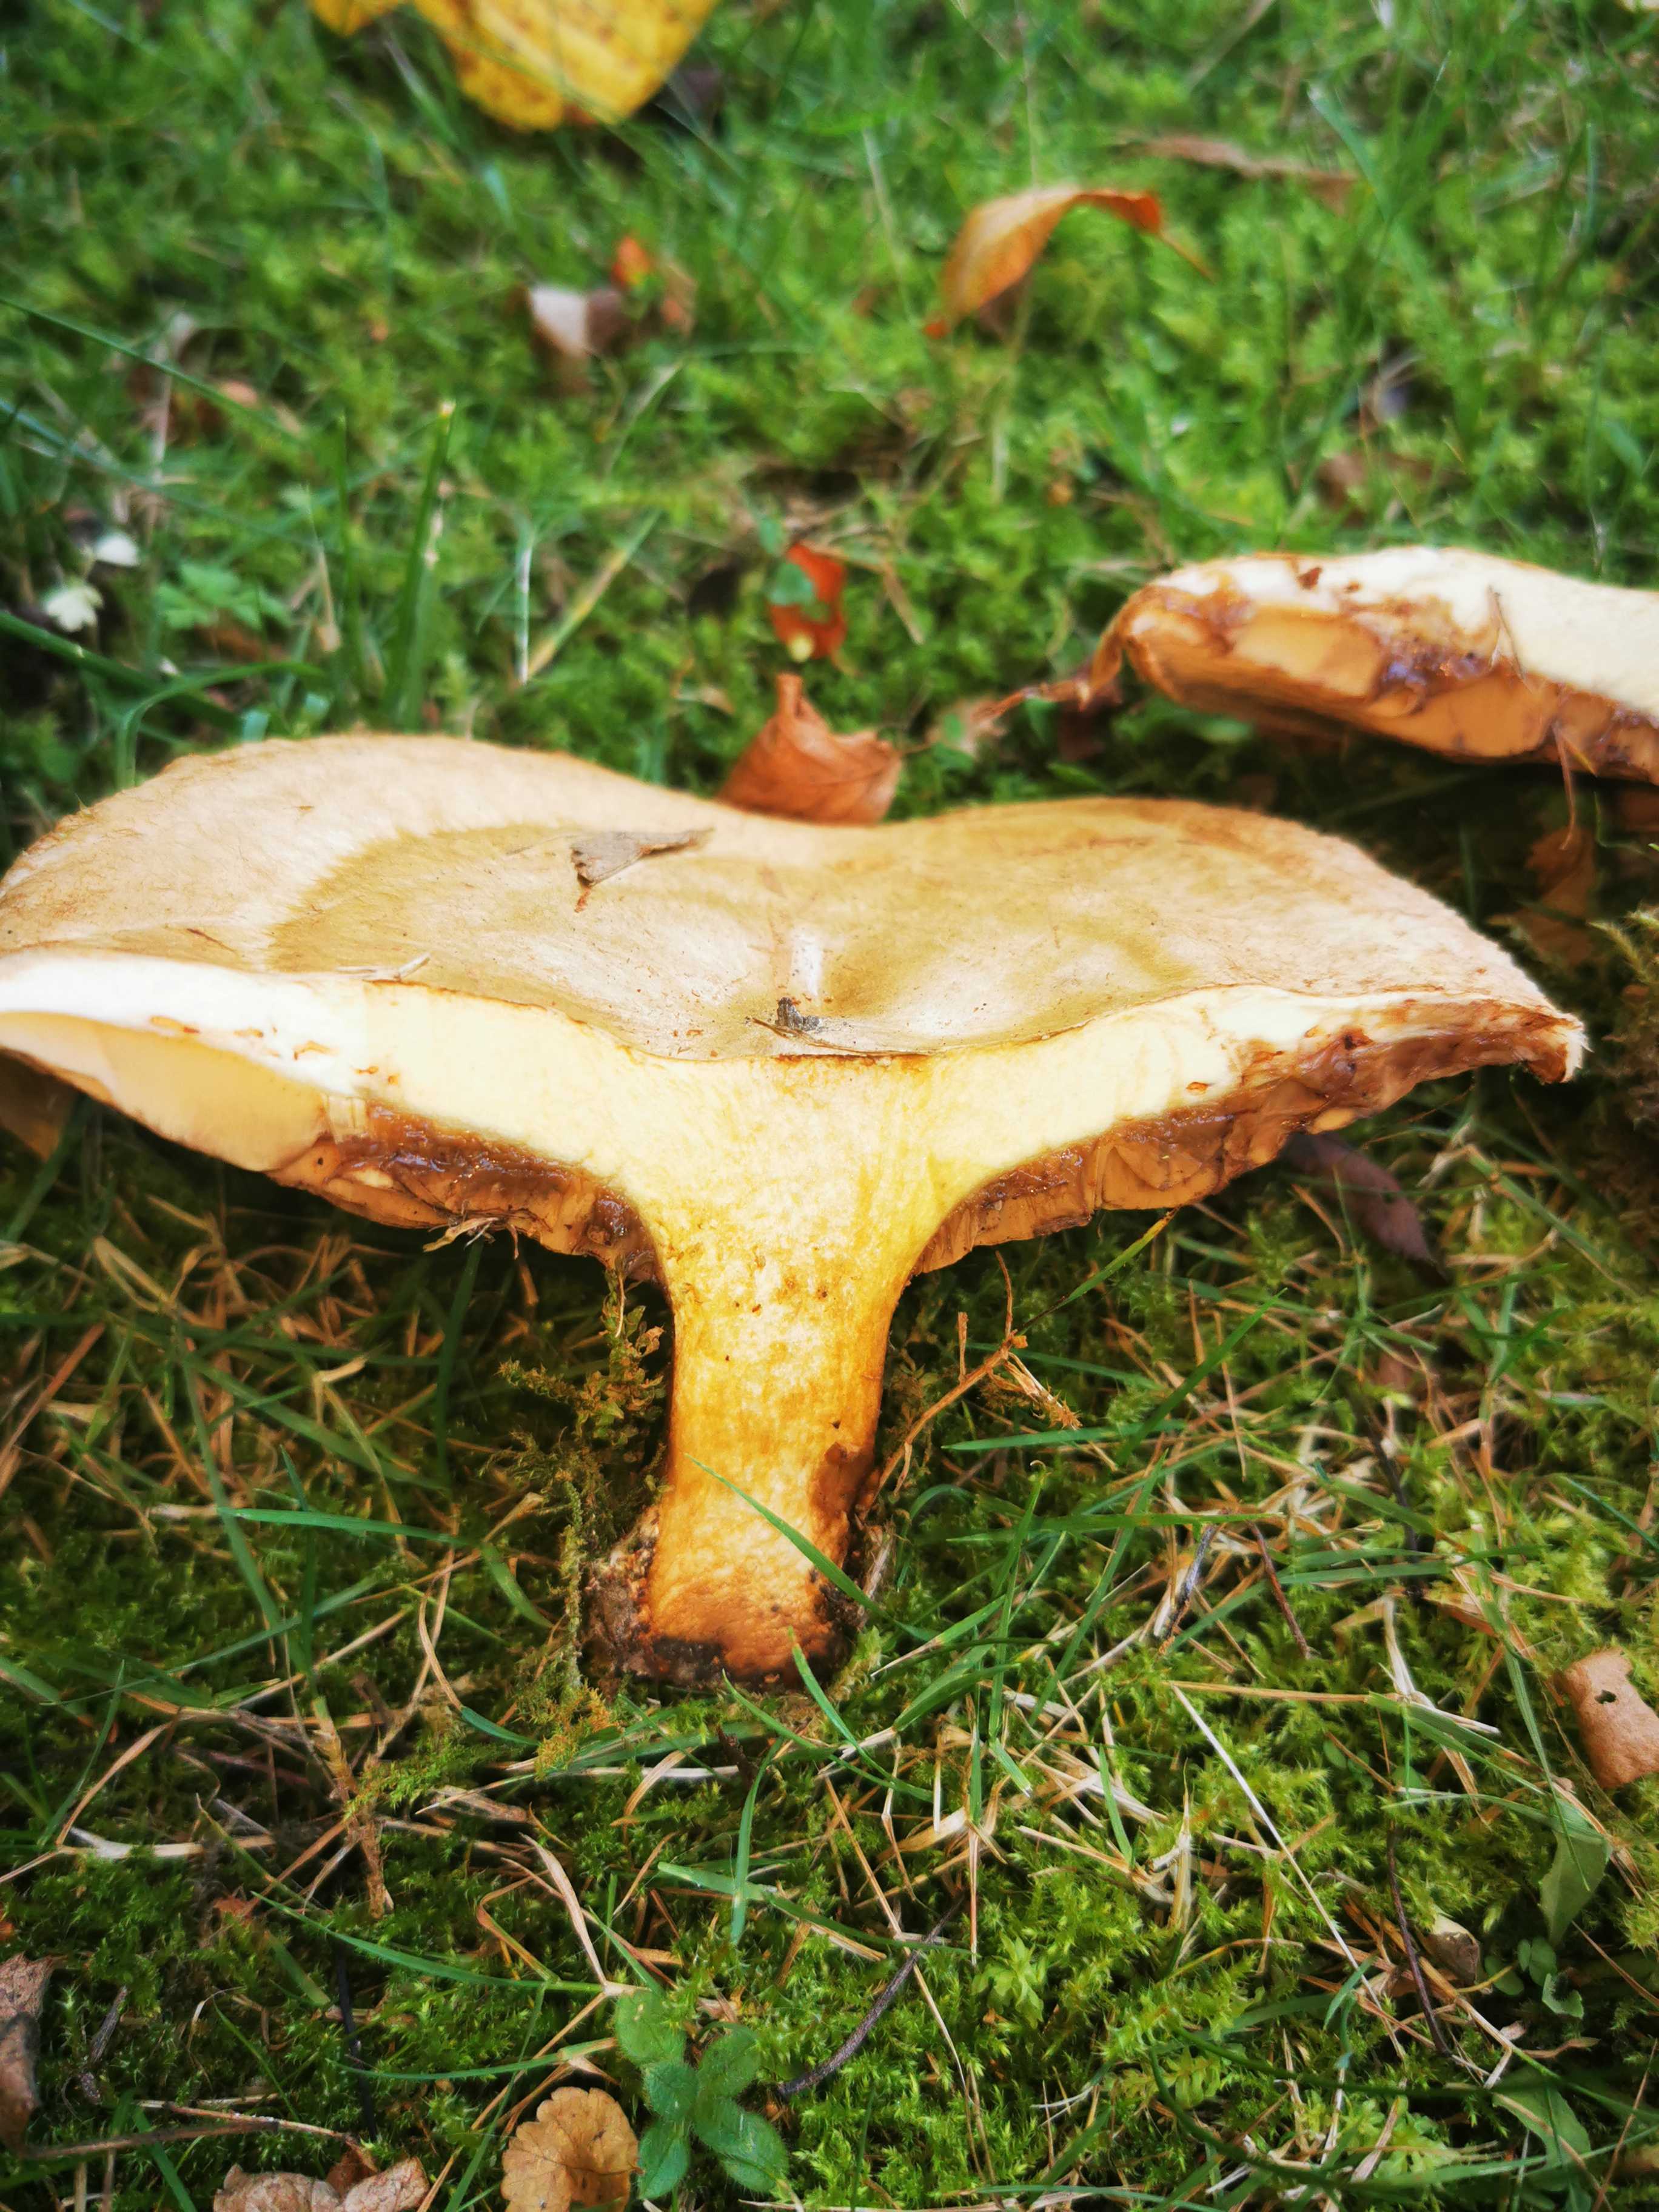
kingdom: Fungi
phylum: Basidiomycota
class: Agaricomycetes
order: Boletales
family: Paxillaceae
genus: Paxillus
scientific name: Paxillus
